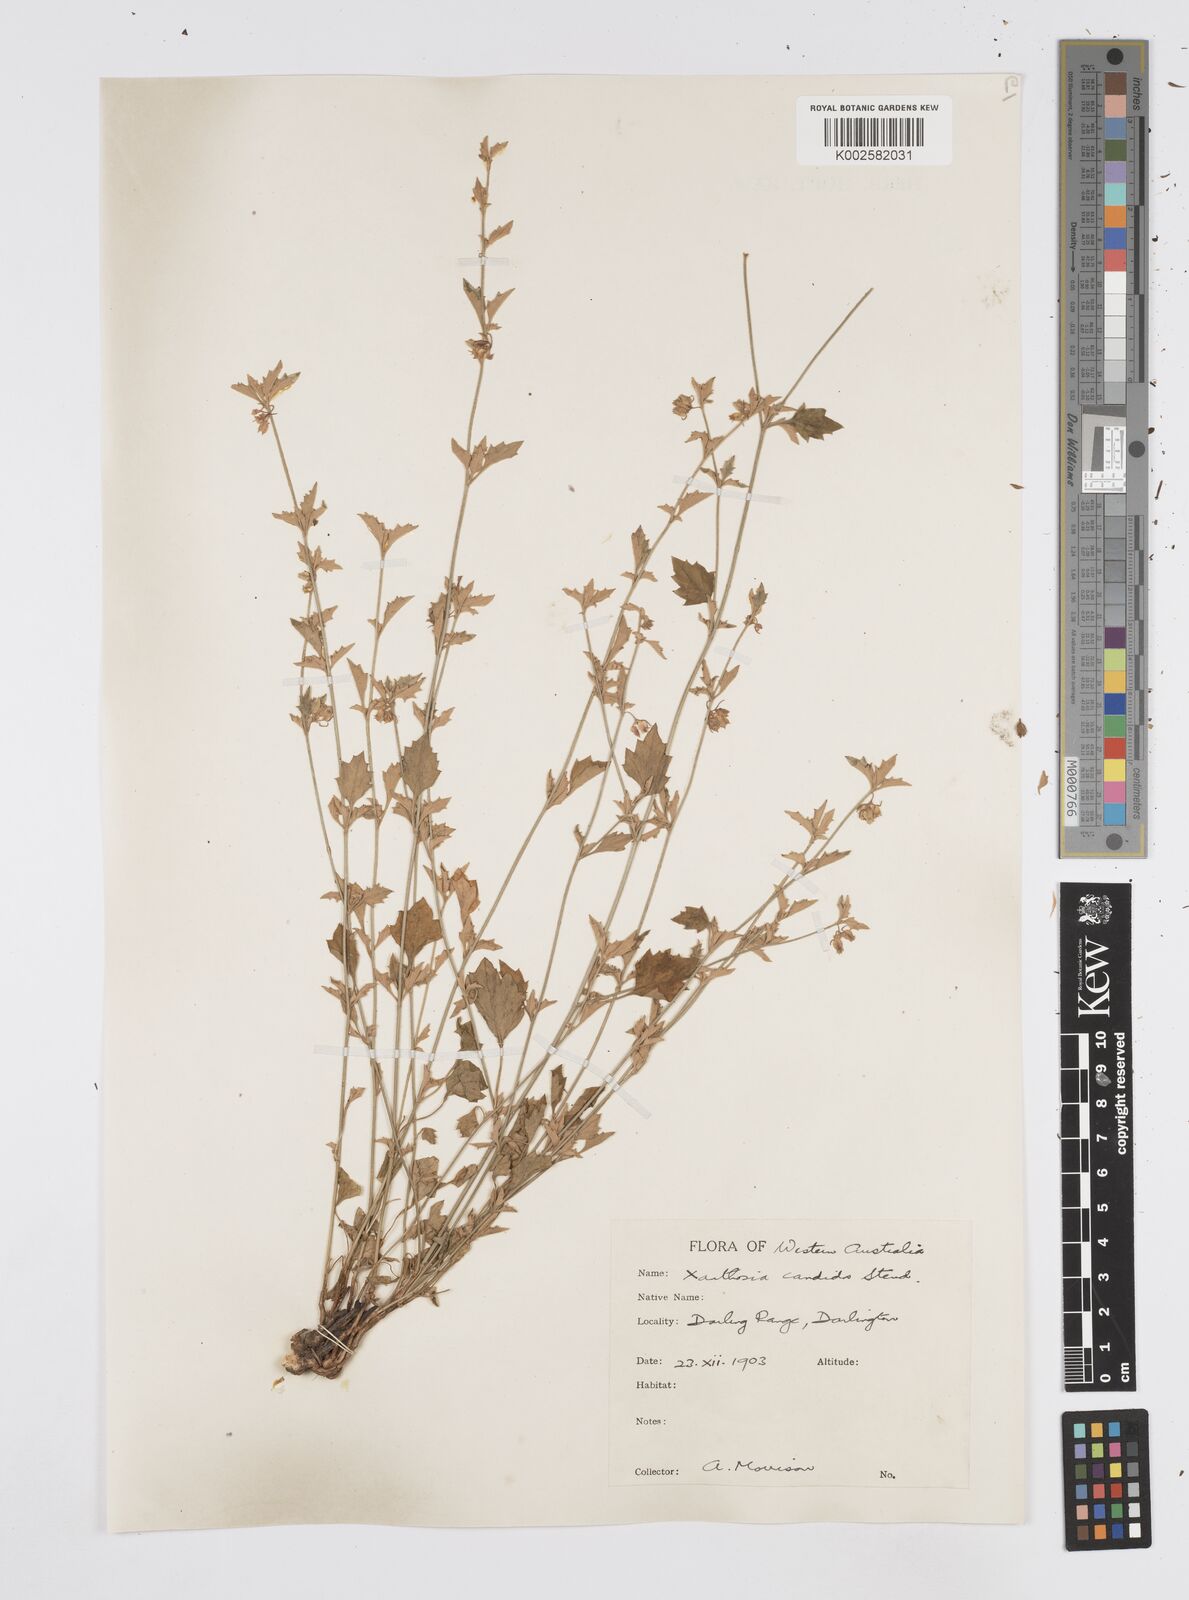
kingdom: Plantae
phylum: Tracheophyta
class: Magnoliopsida
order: Apiales
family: Apiaceae
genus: Xanthosia
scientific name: Xanthosia candida
